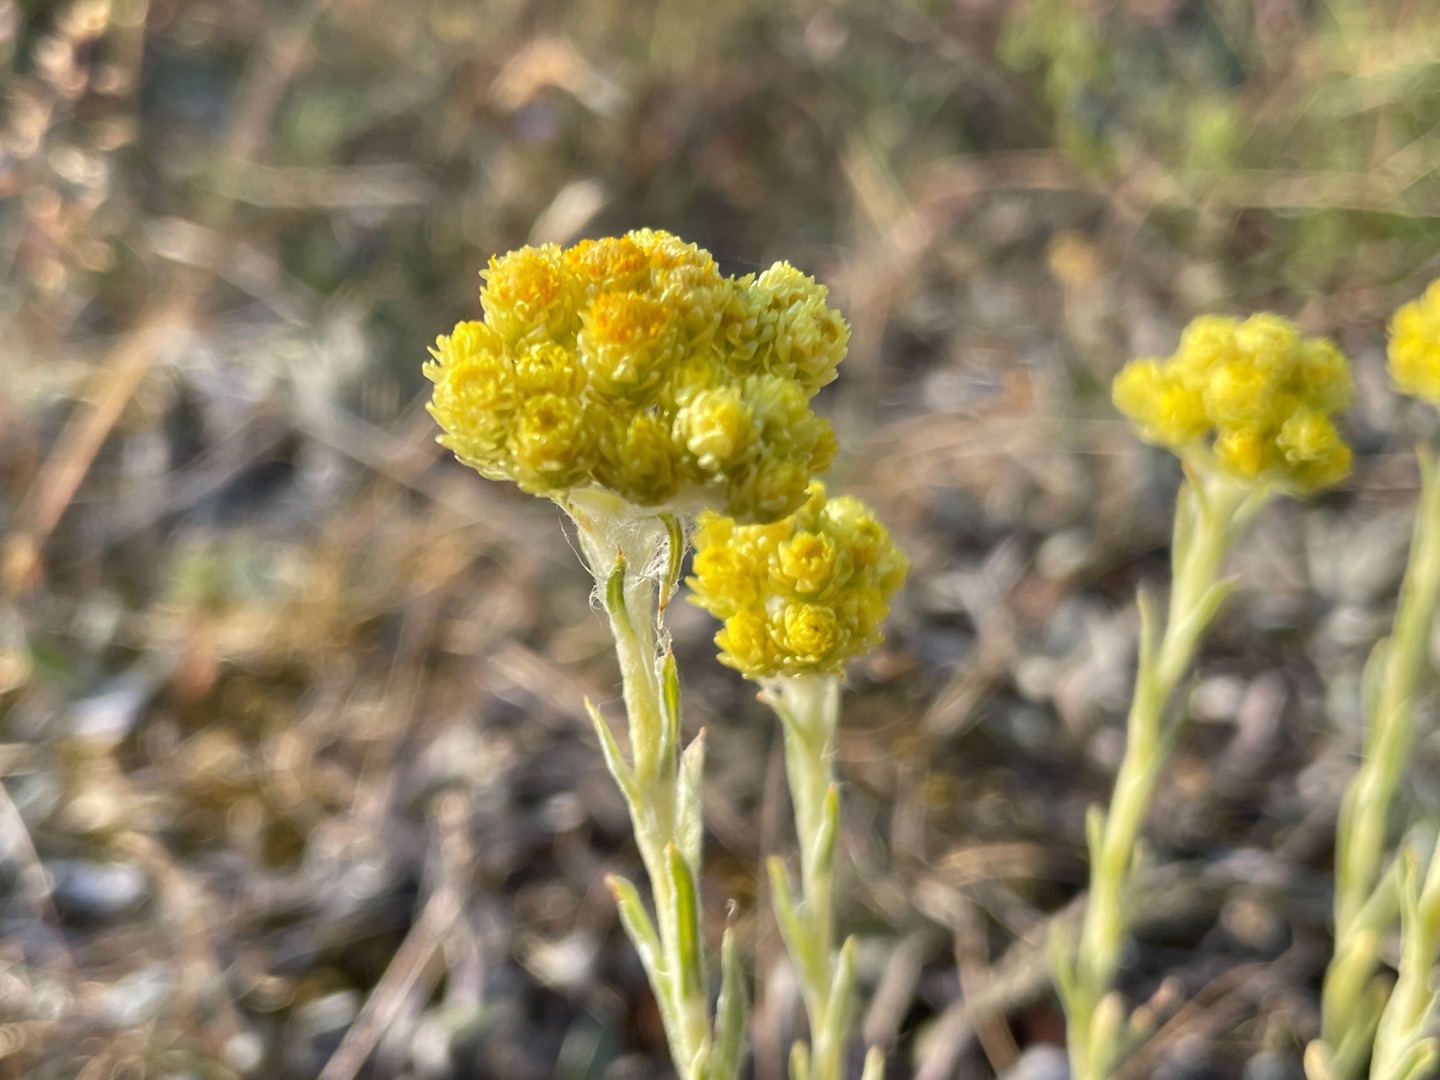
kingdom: Plantae
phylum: Tracheophyta
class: Magnoliopsida
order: Asterales
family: Asteraceae
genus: Helichrysum
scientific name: Helichrysum arenarium
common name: Gul evighedsblomst
